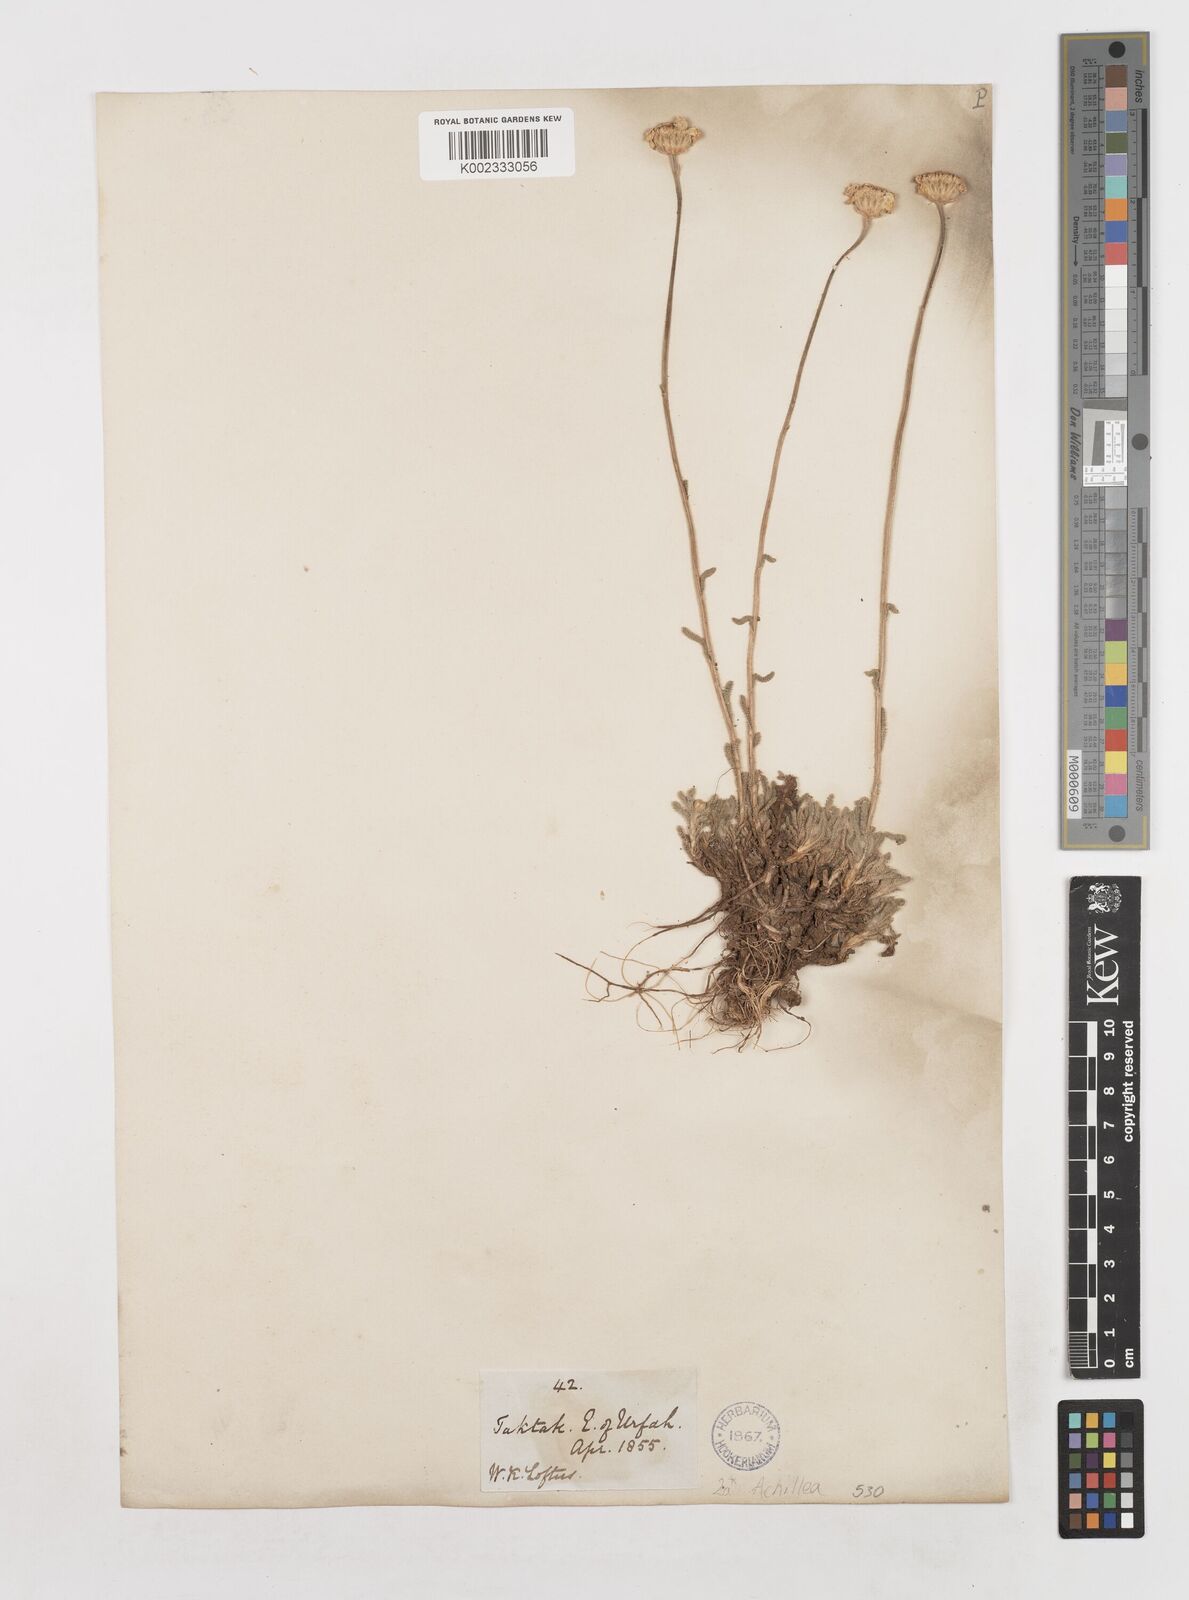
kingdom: Plantae
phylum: Tracheophyta
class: Magnoliopsida
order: Asterales
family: Asteraceae
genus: Achillea
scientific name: Achillea
